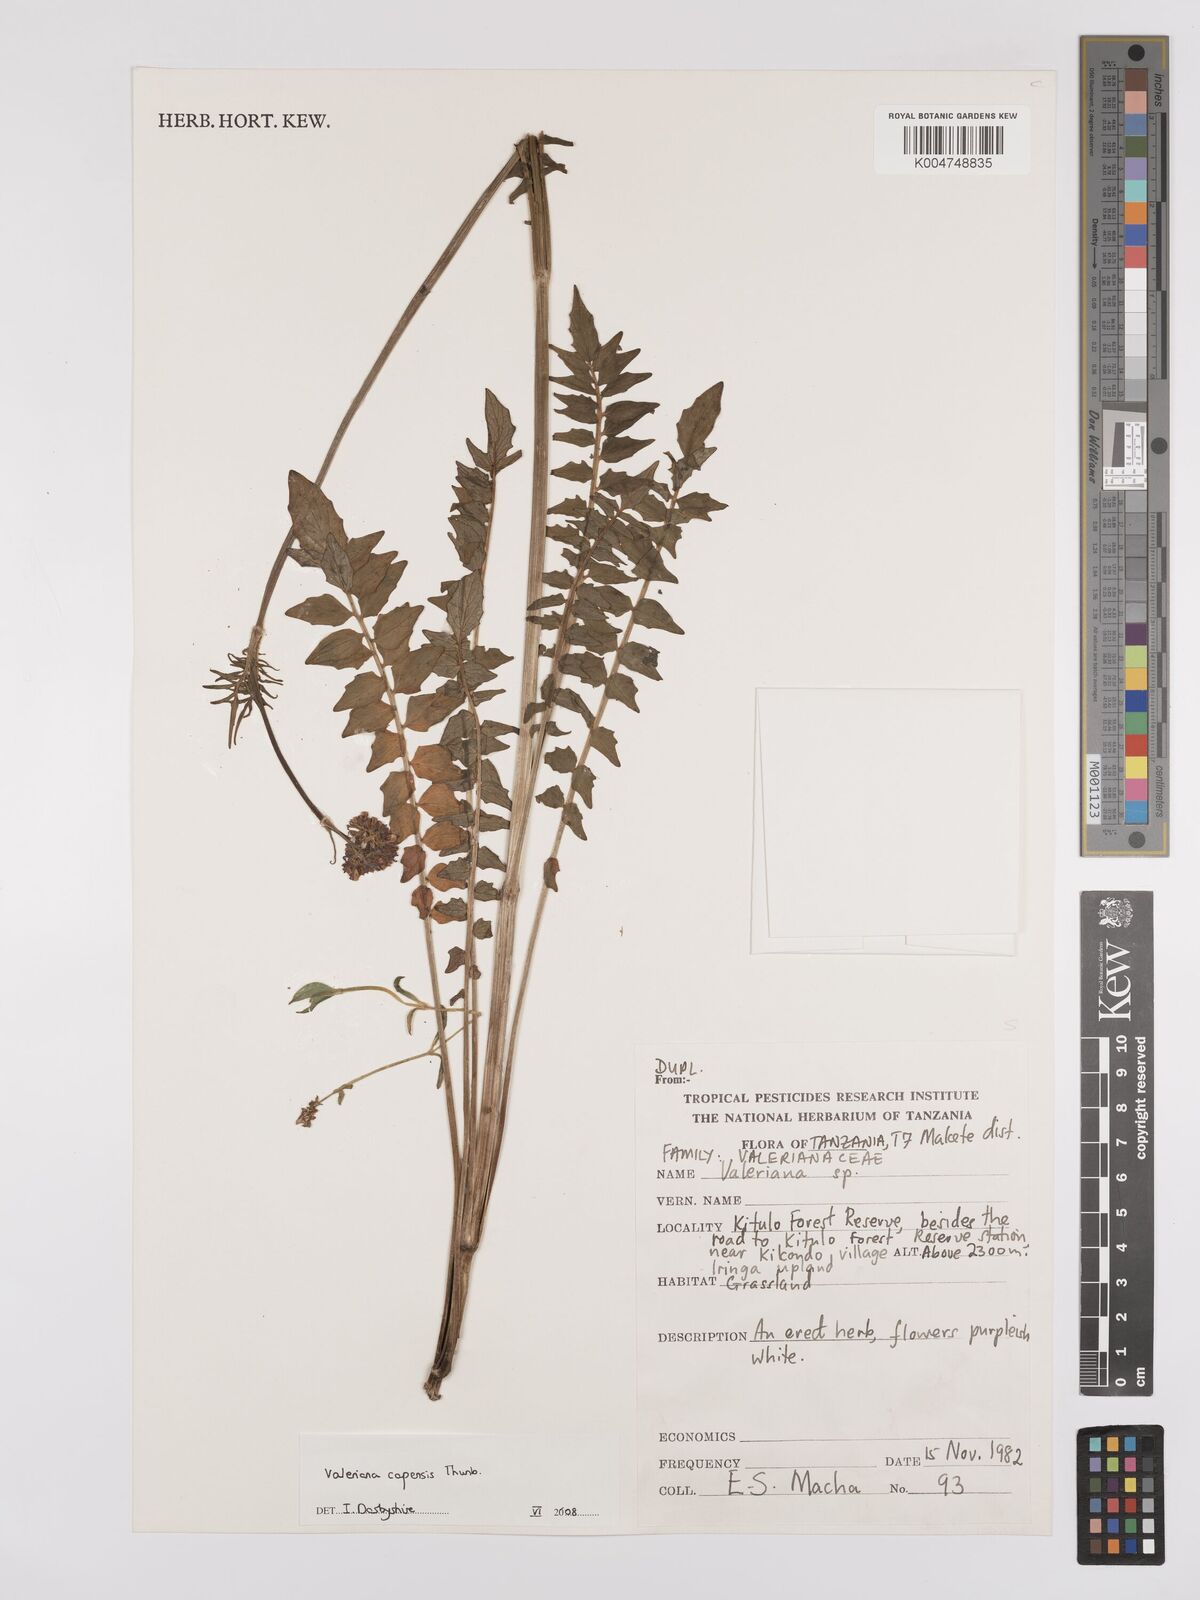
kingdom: Plantae
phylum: Tracheophyta
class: Magnoliopsida
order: Dipsacales
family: Caprifoliaceae
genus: Valeriana
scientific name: Valeriana capensis
